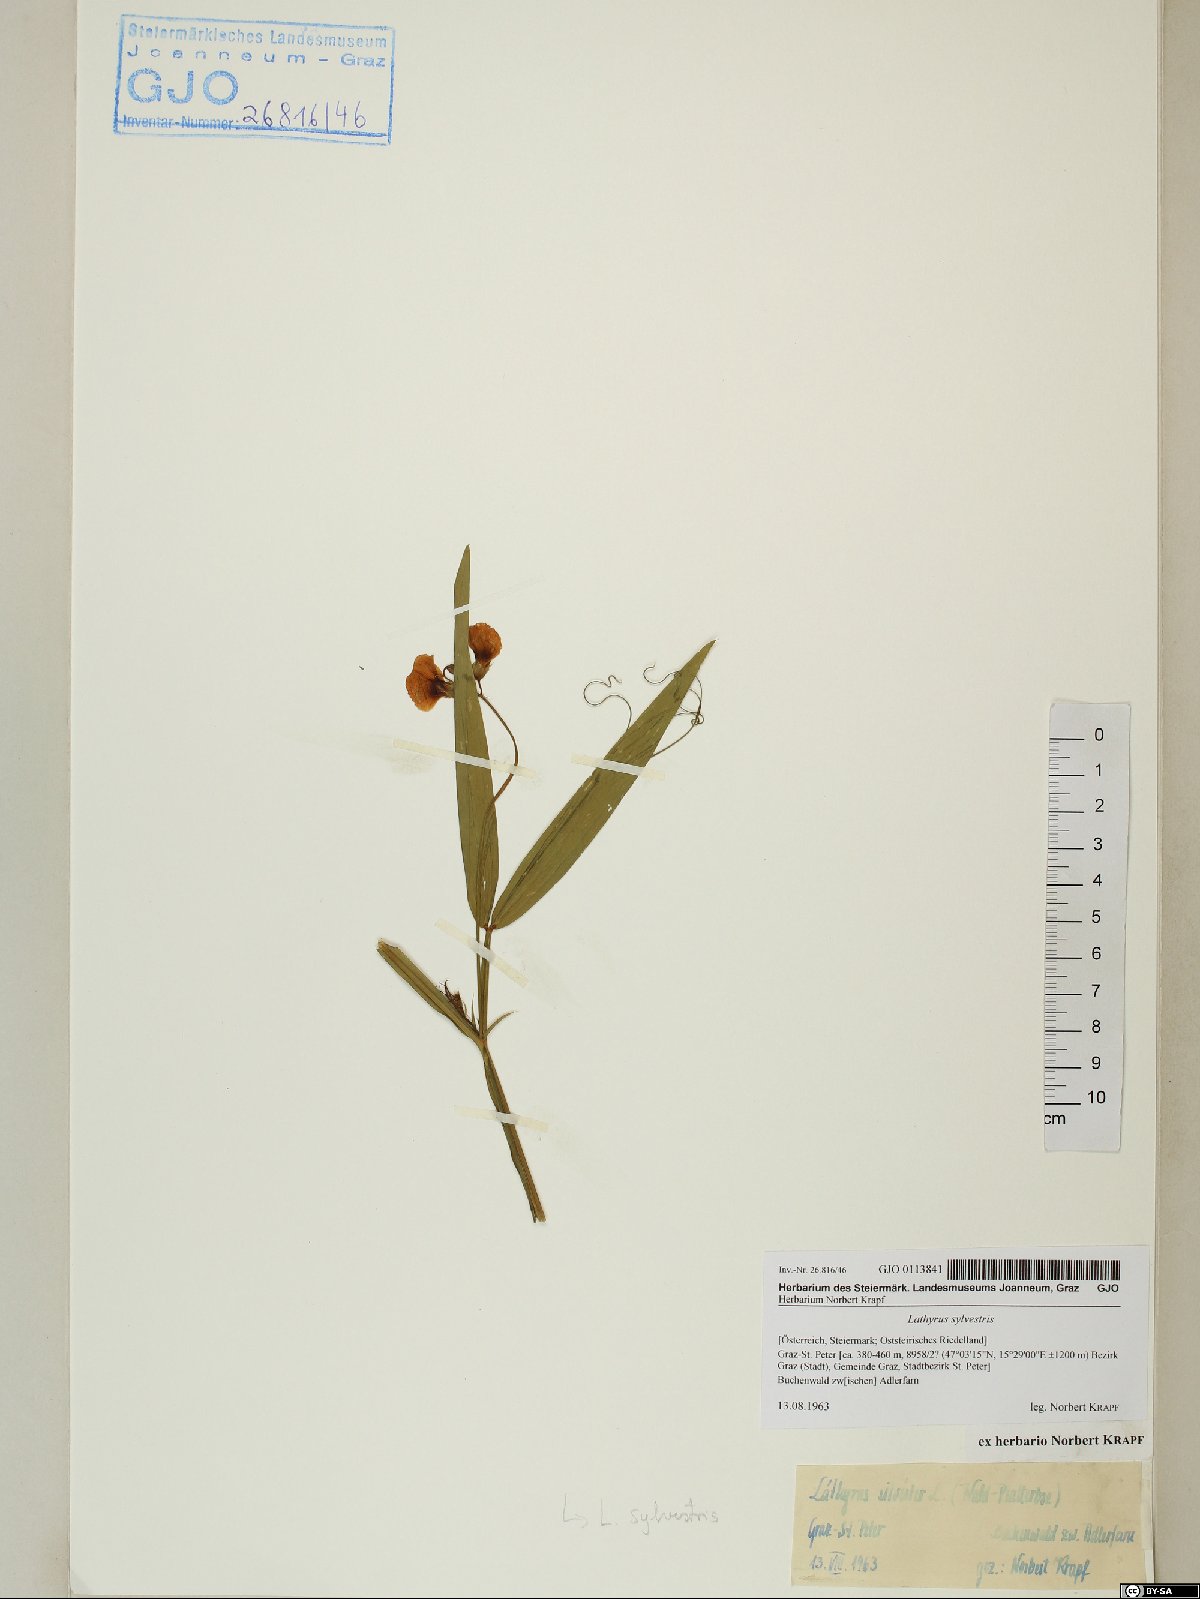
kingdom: Plantae
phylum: Tracheophyta
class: Magnoliopsida
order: Fabales
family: Fabaceae
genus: Lathyrus
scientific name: Lathyrus sylvestris
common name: Flat pea
